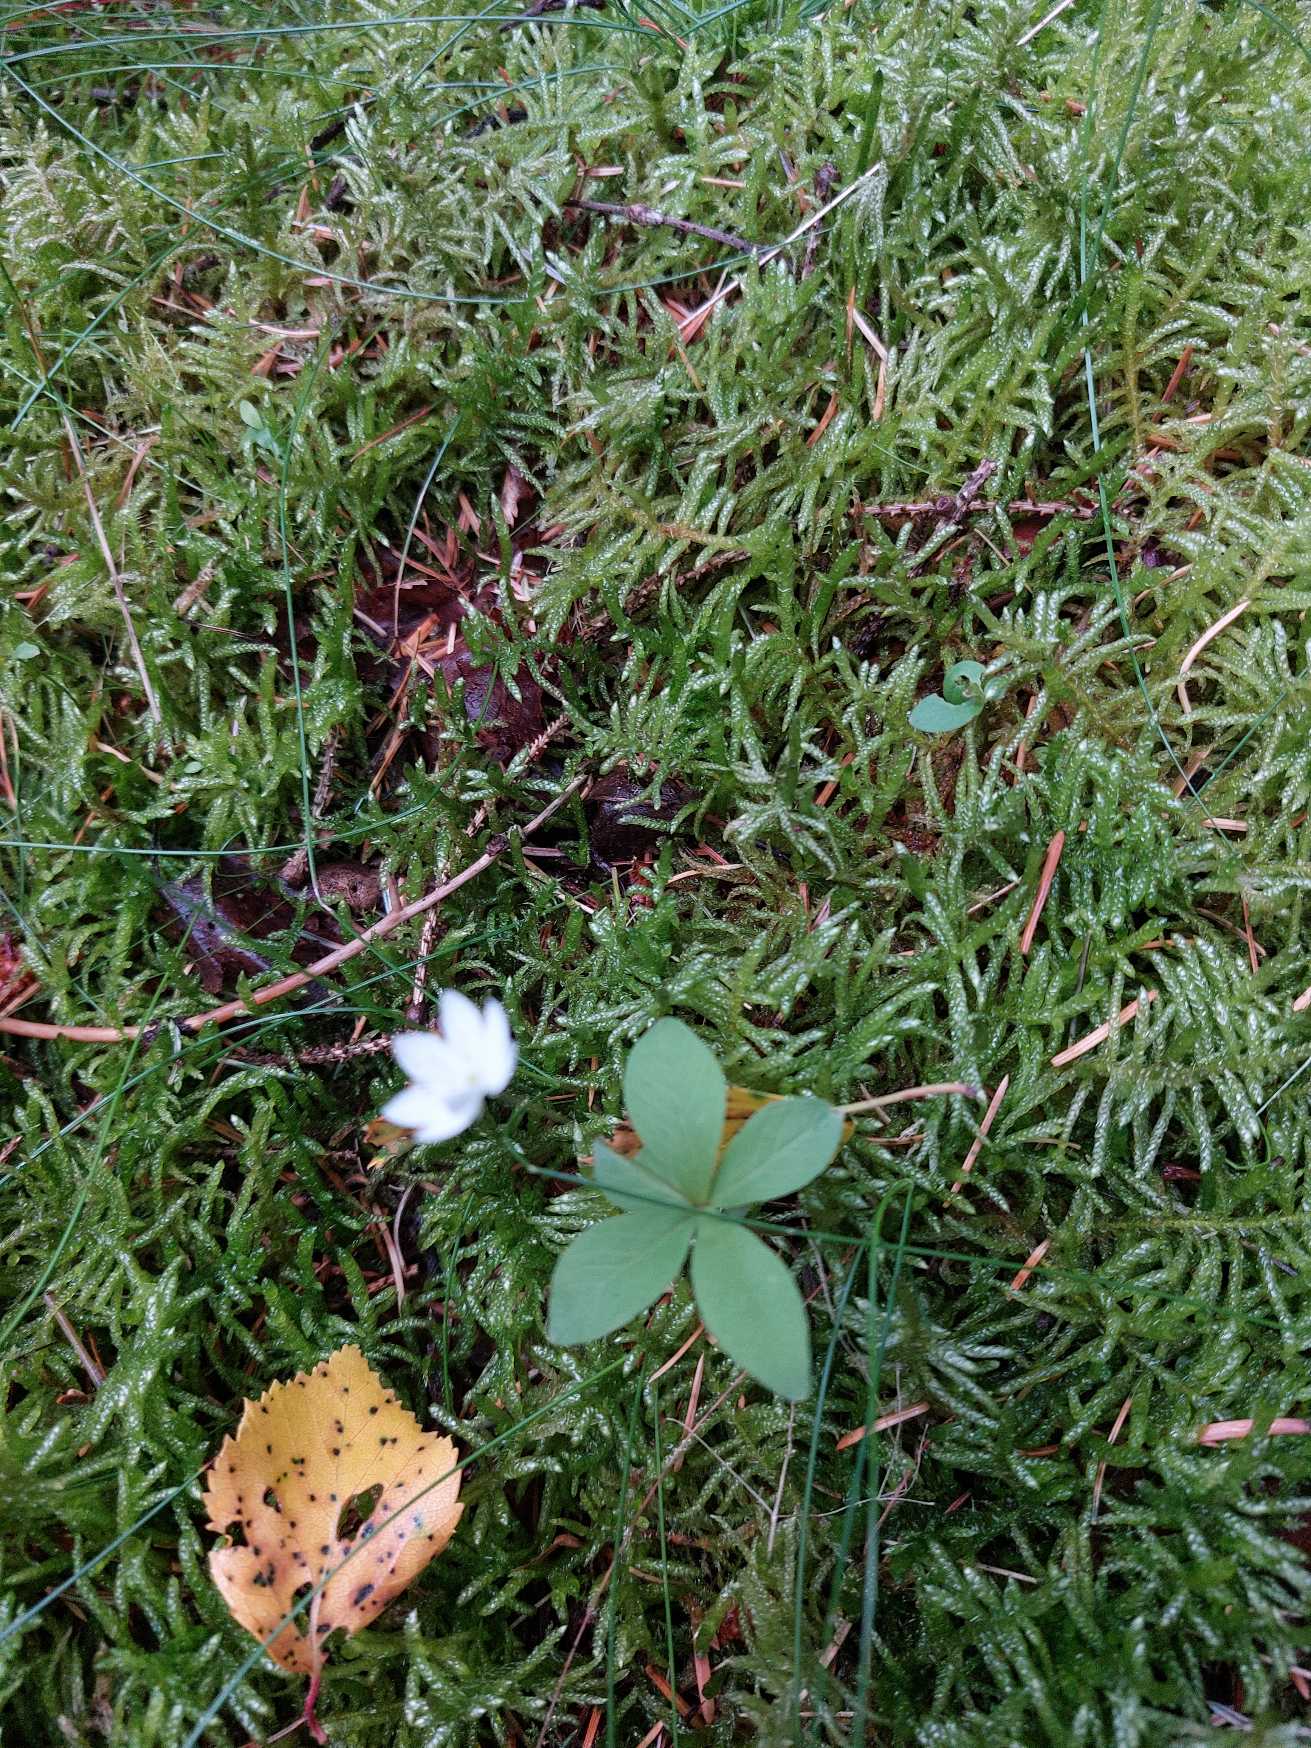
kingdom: Plantae
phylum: Tracheophyta
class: Magnoliopsida
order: Ericales
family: Primulaceae
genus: Lysimachia
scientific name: Lysimachia europaea
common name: Skovstjerne
